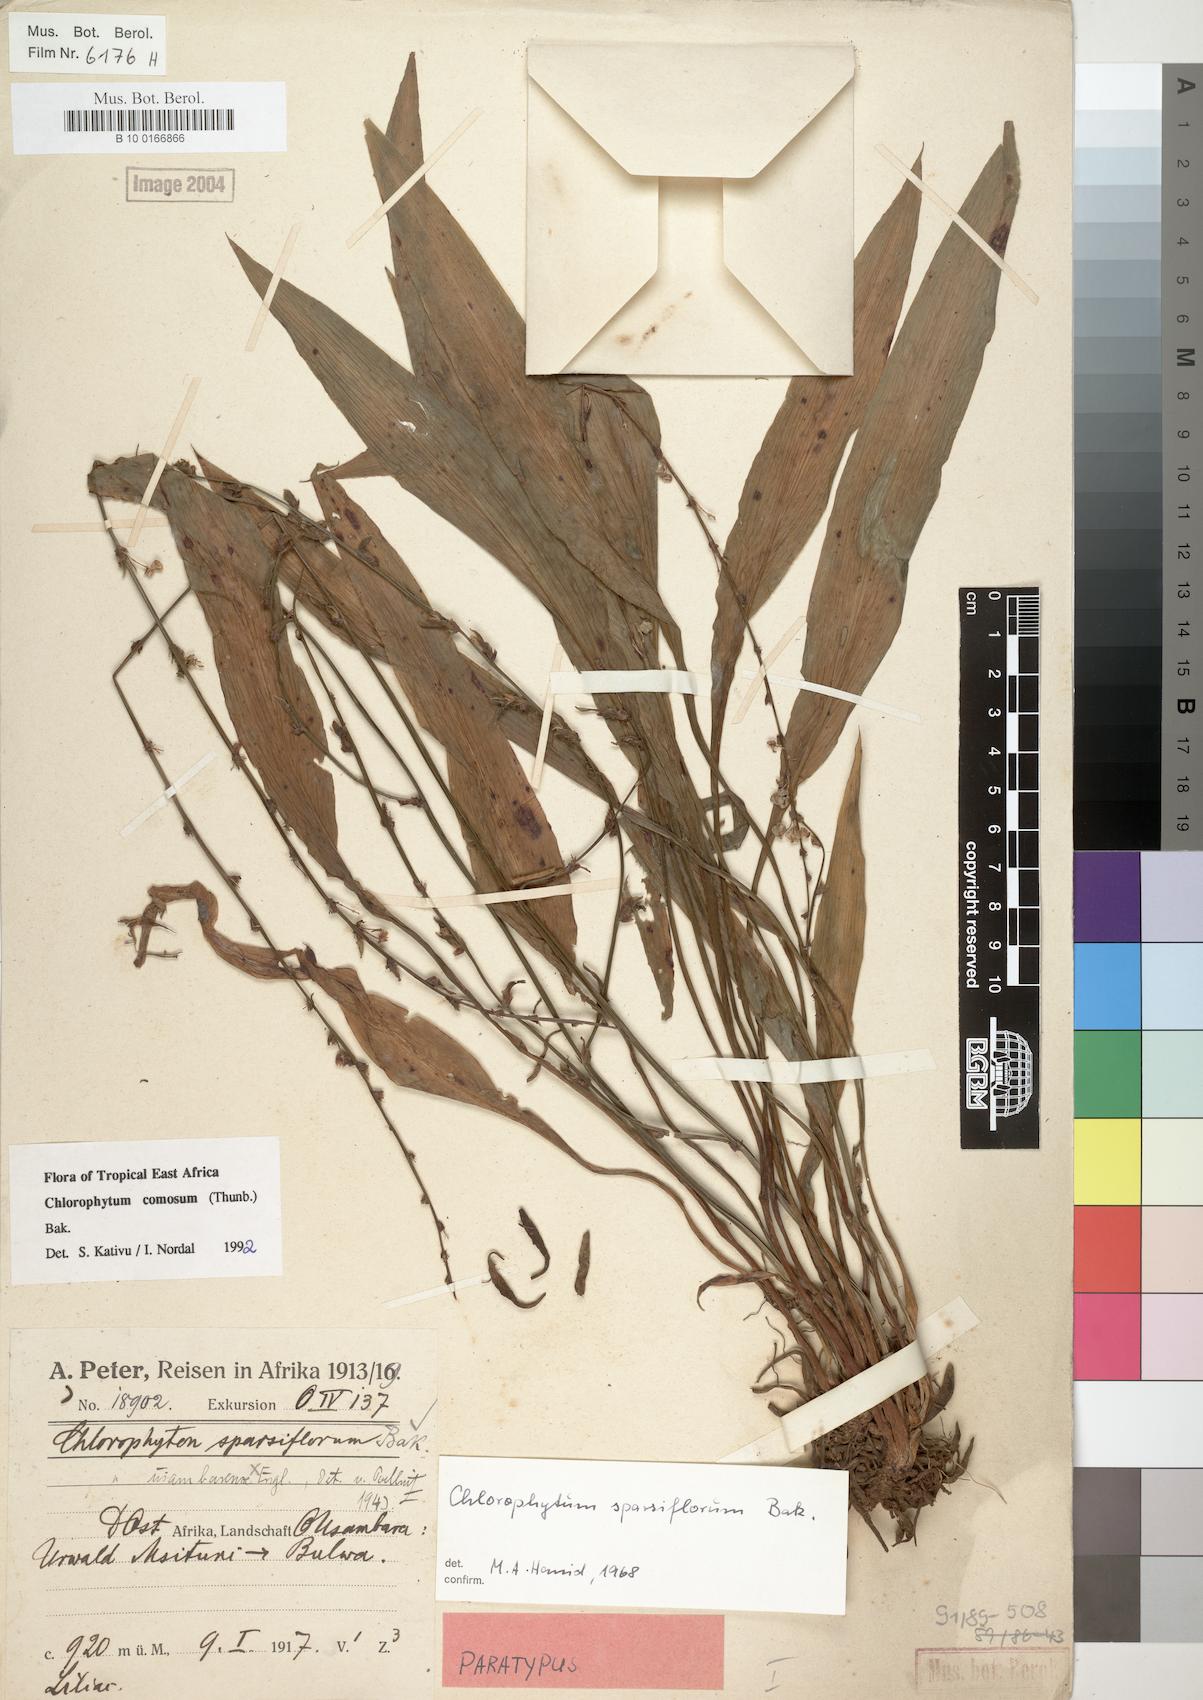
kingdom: Plantae
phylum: Tracheophyta
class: Liliopsida
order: Asparagales
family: Asparagaceae
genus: Chlorophytum
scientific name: Chlorophytum comosum
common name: Spider plant
